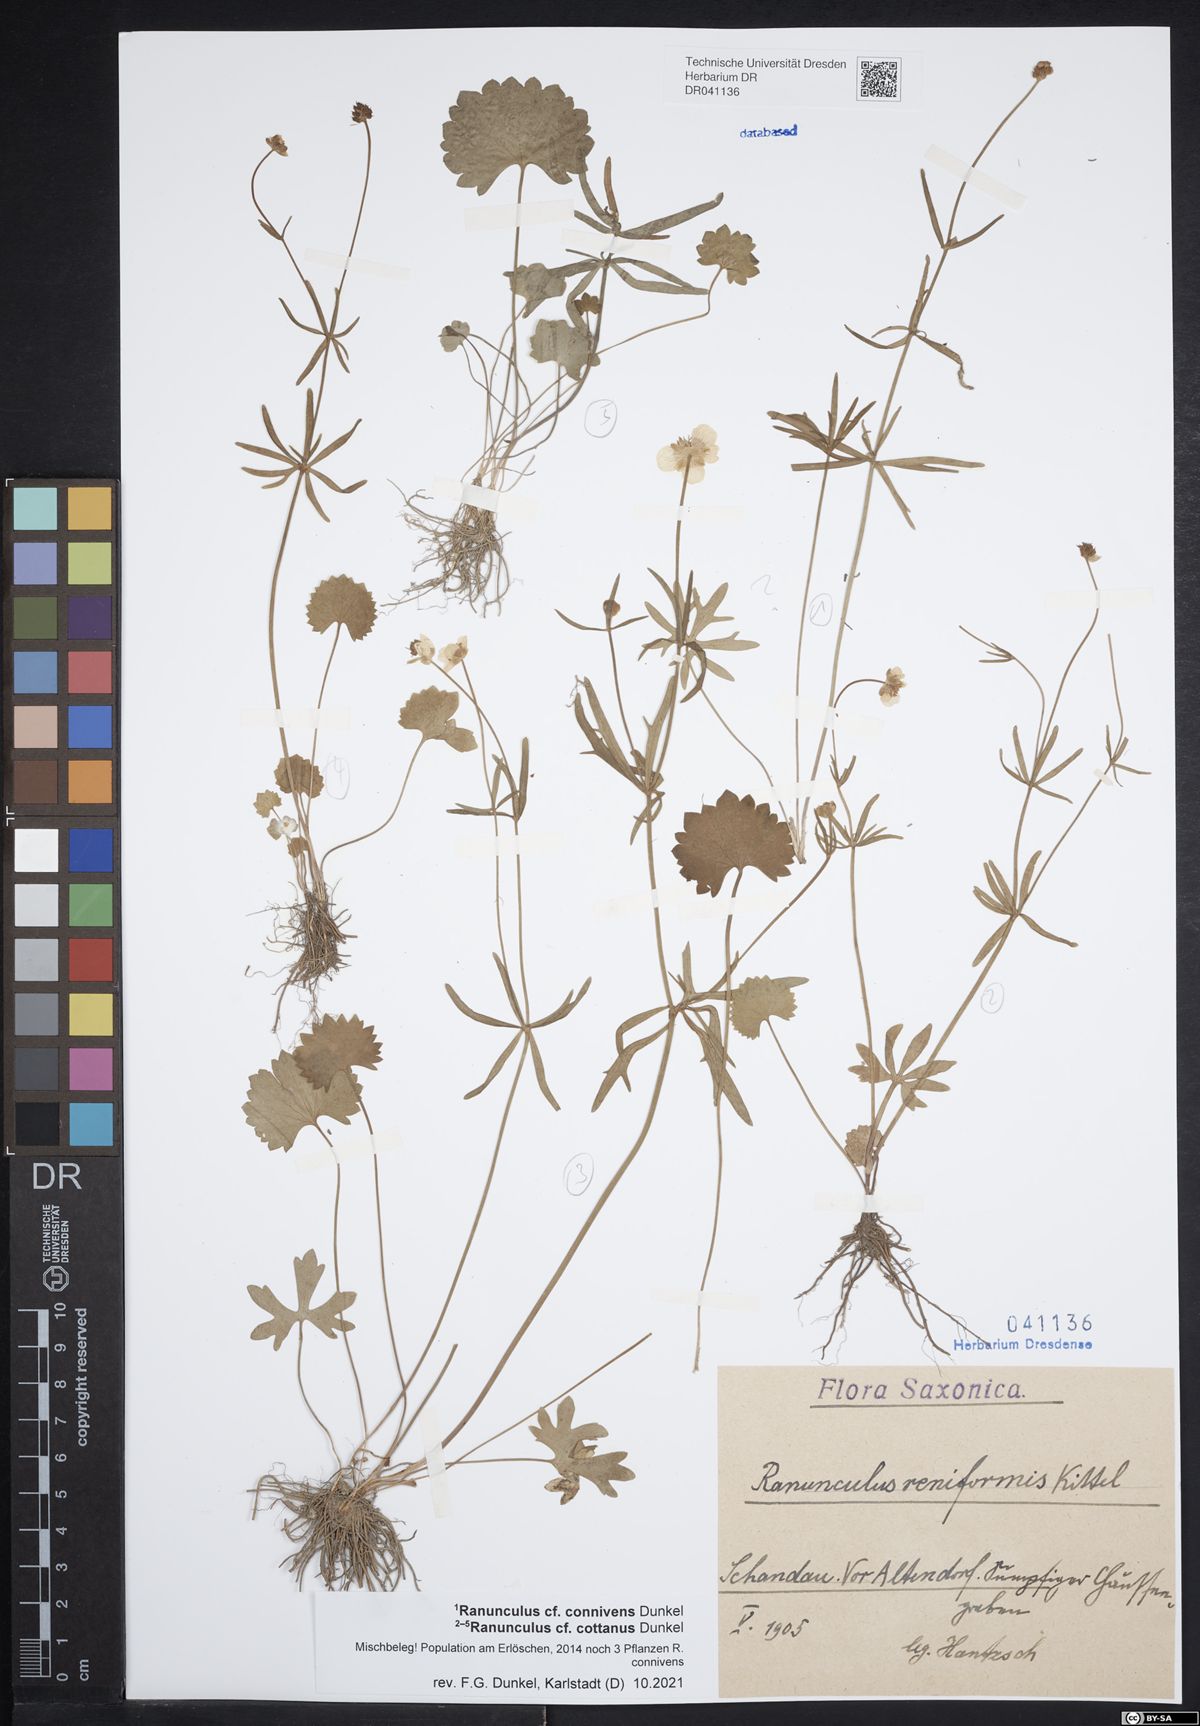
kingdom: Plantae
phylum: Tracheophyta
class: Magnoliopsida
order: Ranunculales
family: Ranunculaceae
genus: Ranunculus
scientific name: Ranunculus cottanus
